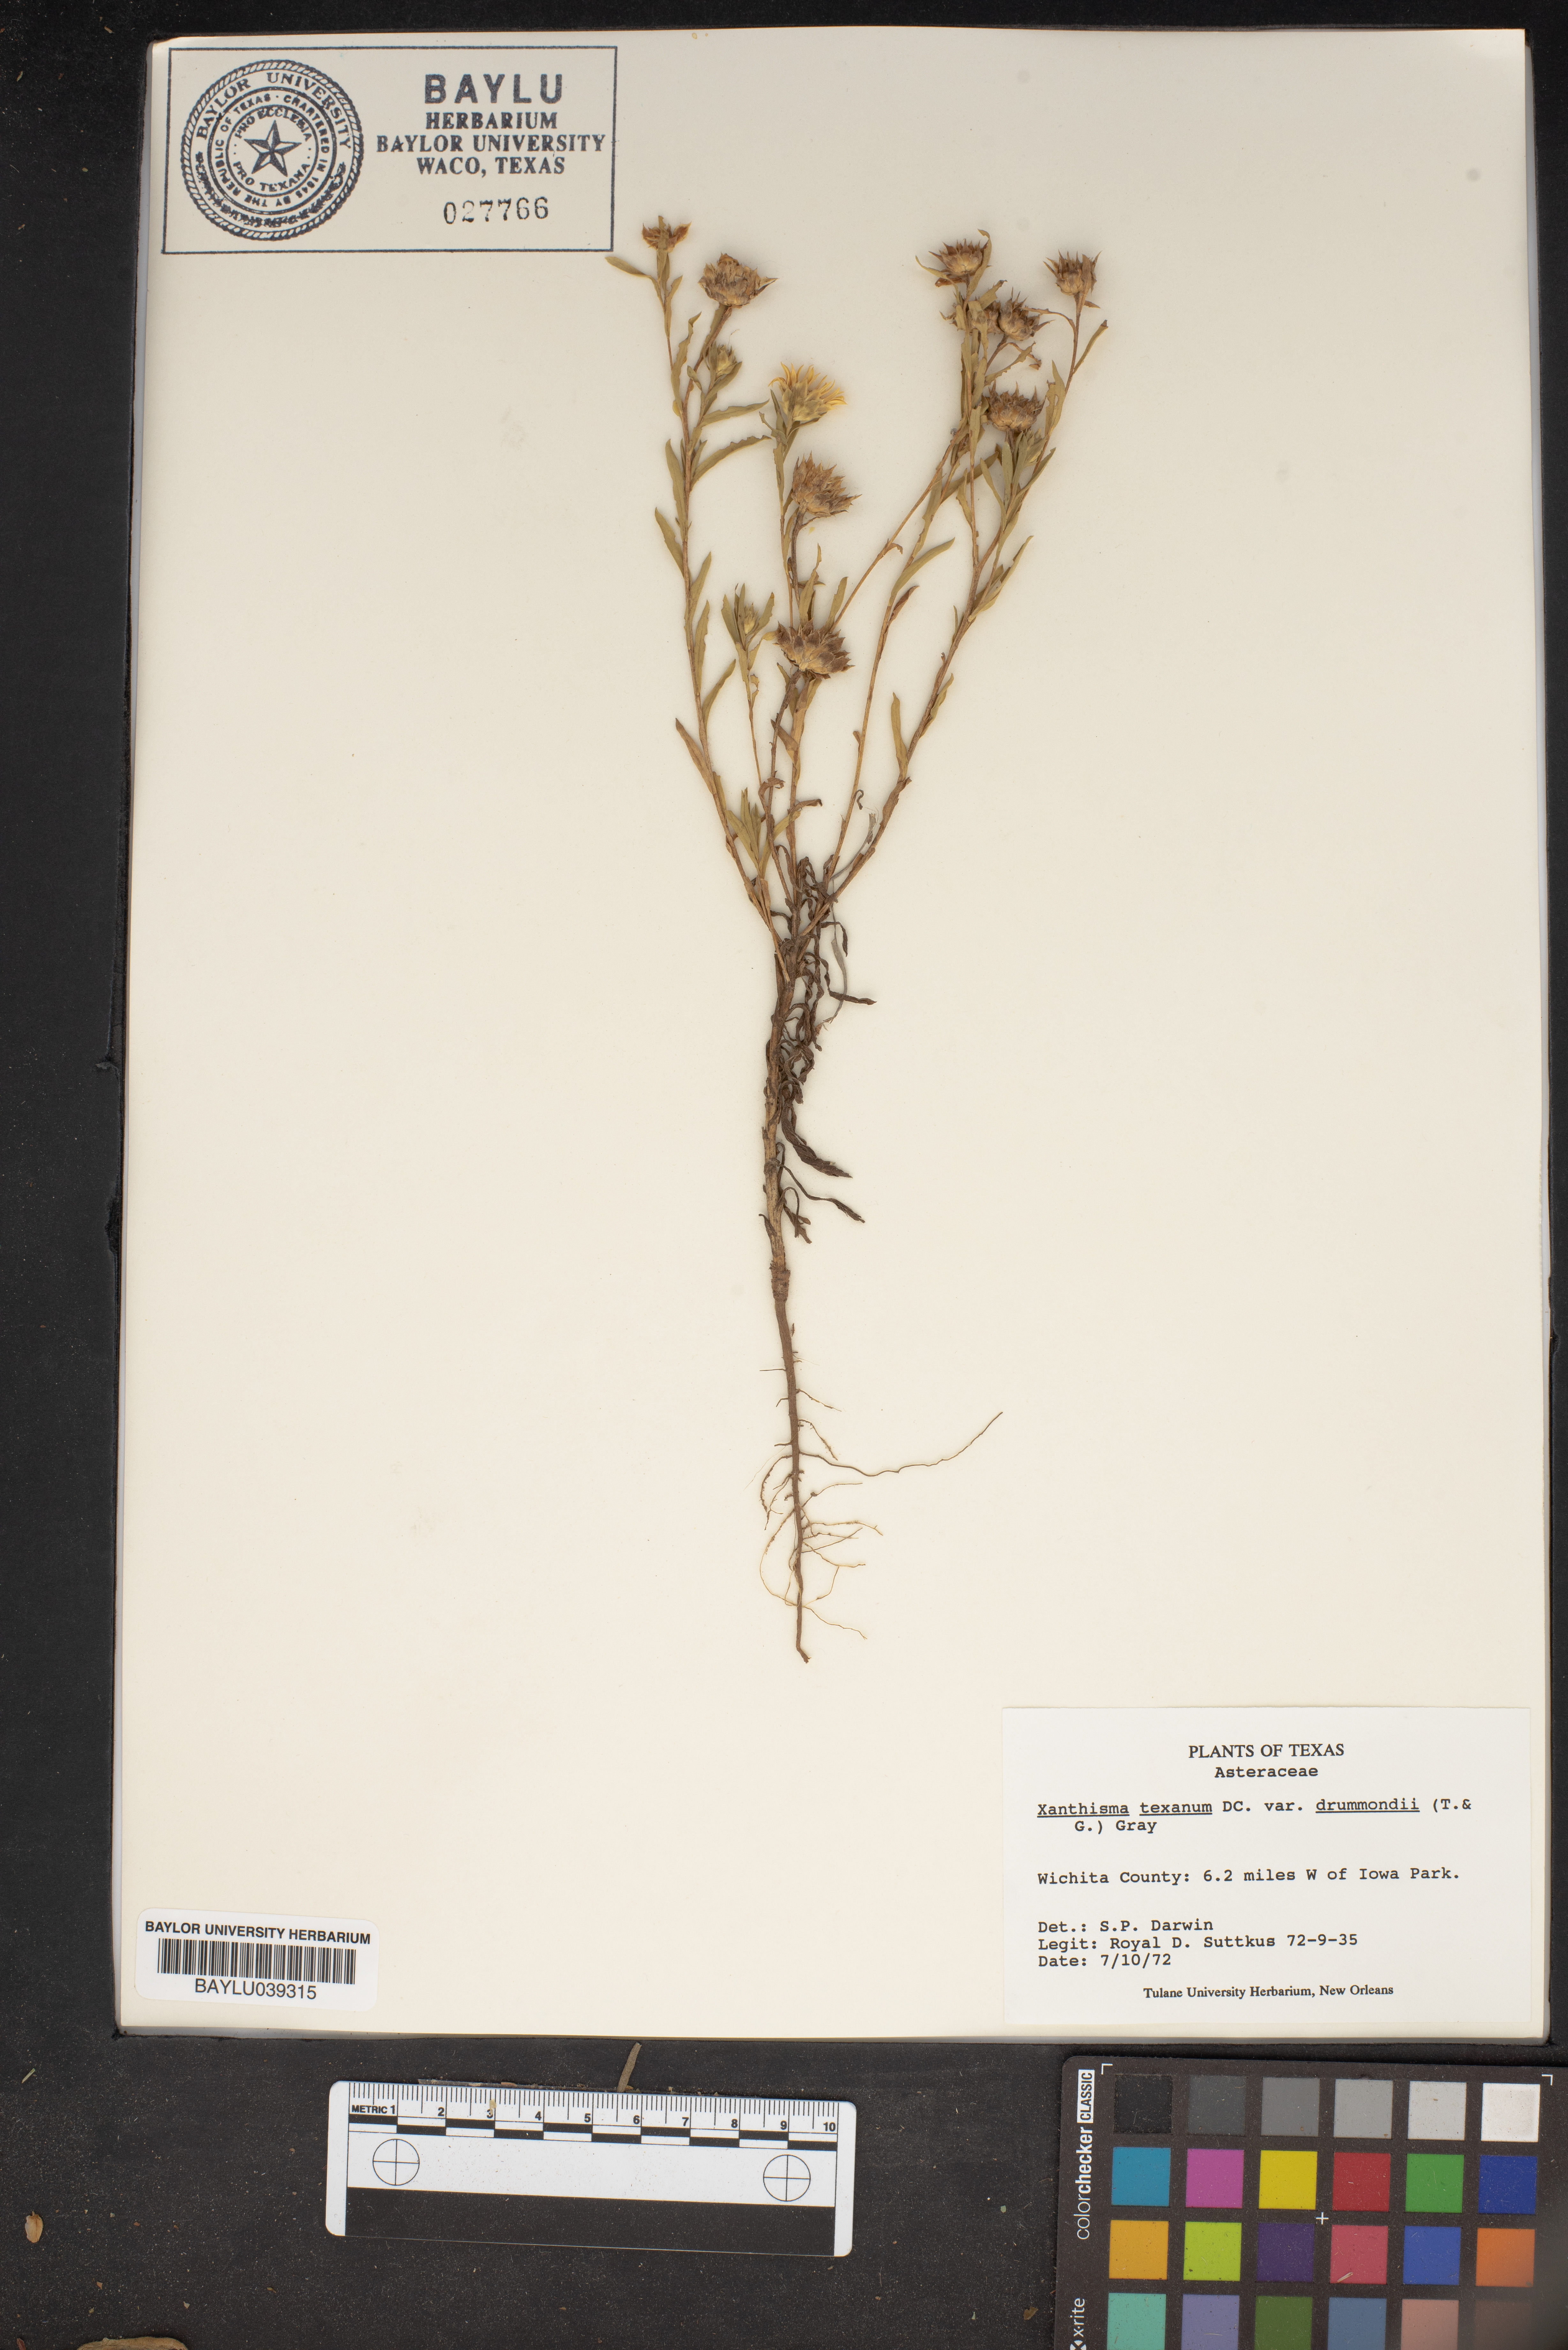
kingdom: Plantae
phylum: Tracheophyta
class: Magnoliopsida
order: Asterales
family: Asteraceae
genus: Xanthisma
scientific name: Xanthisma texanum
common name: Texas sleepy daisy
